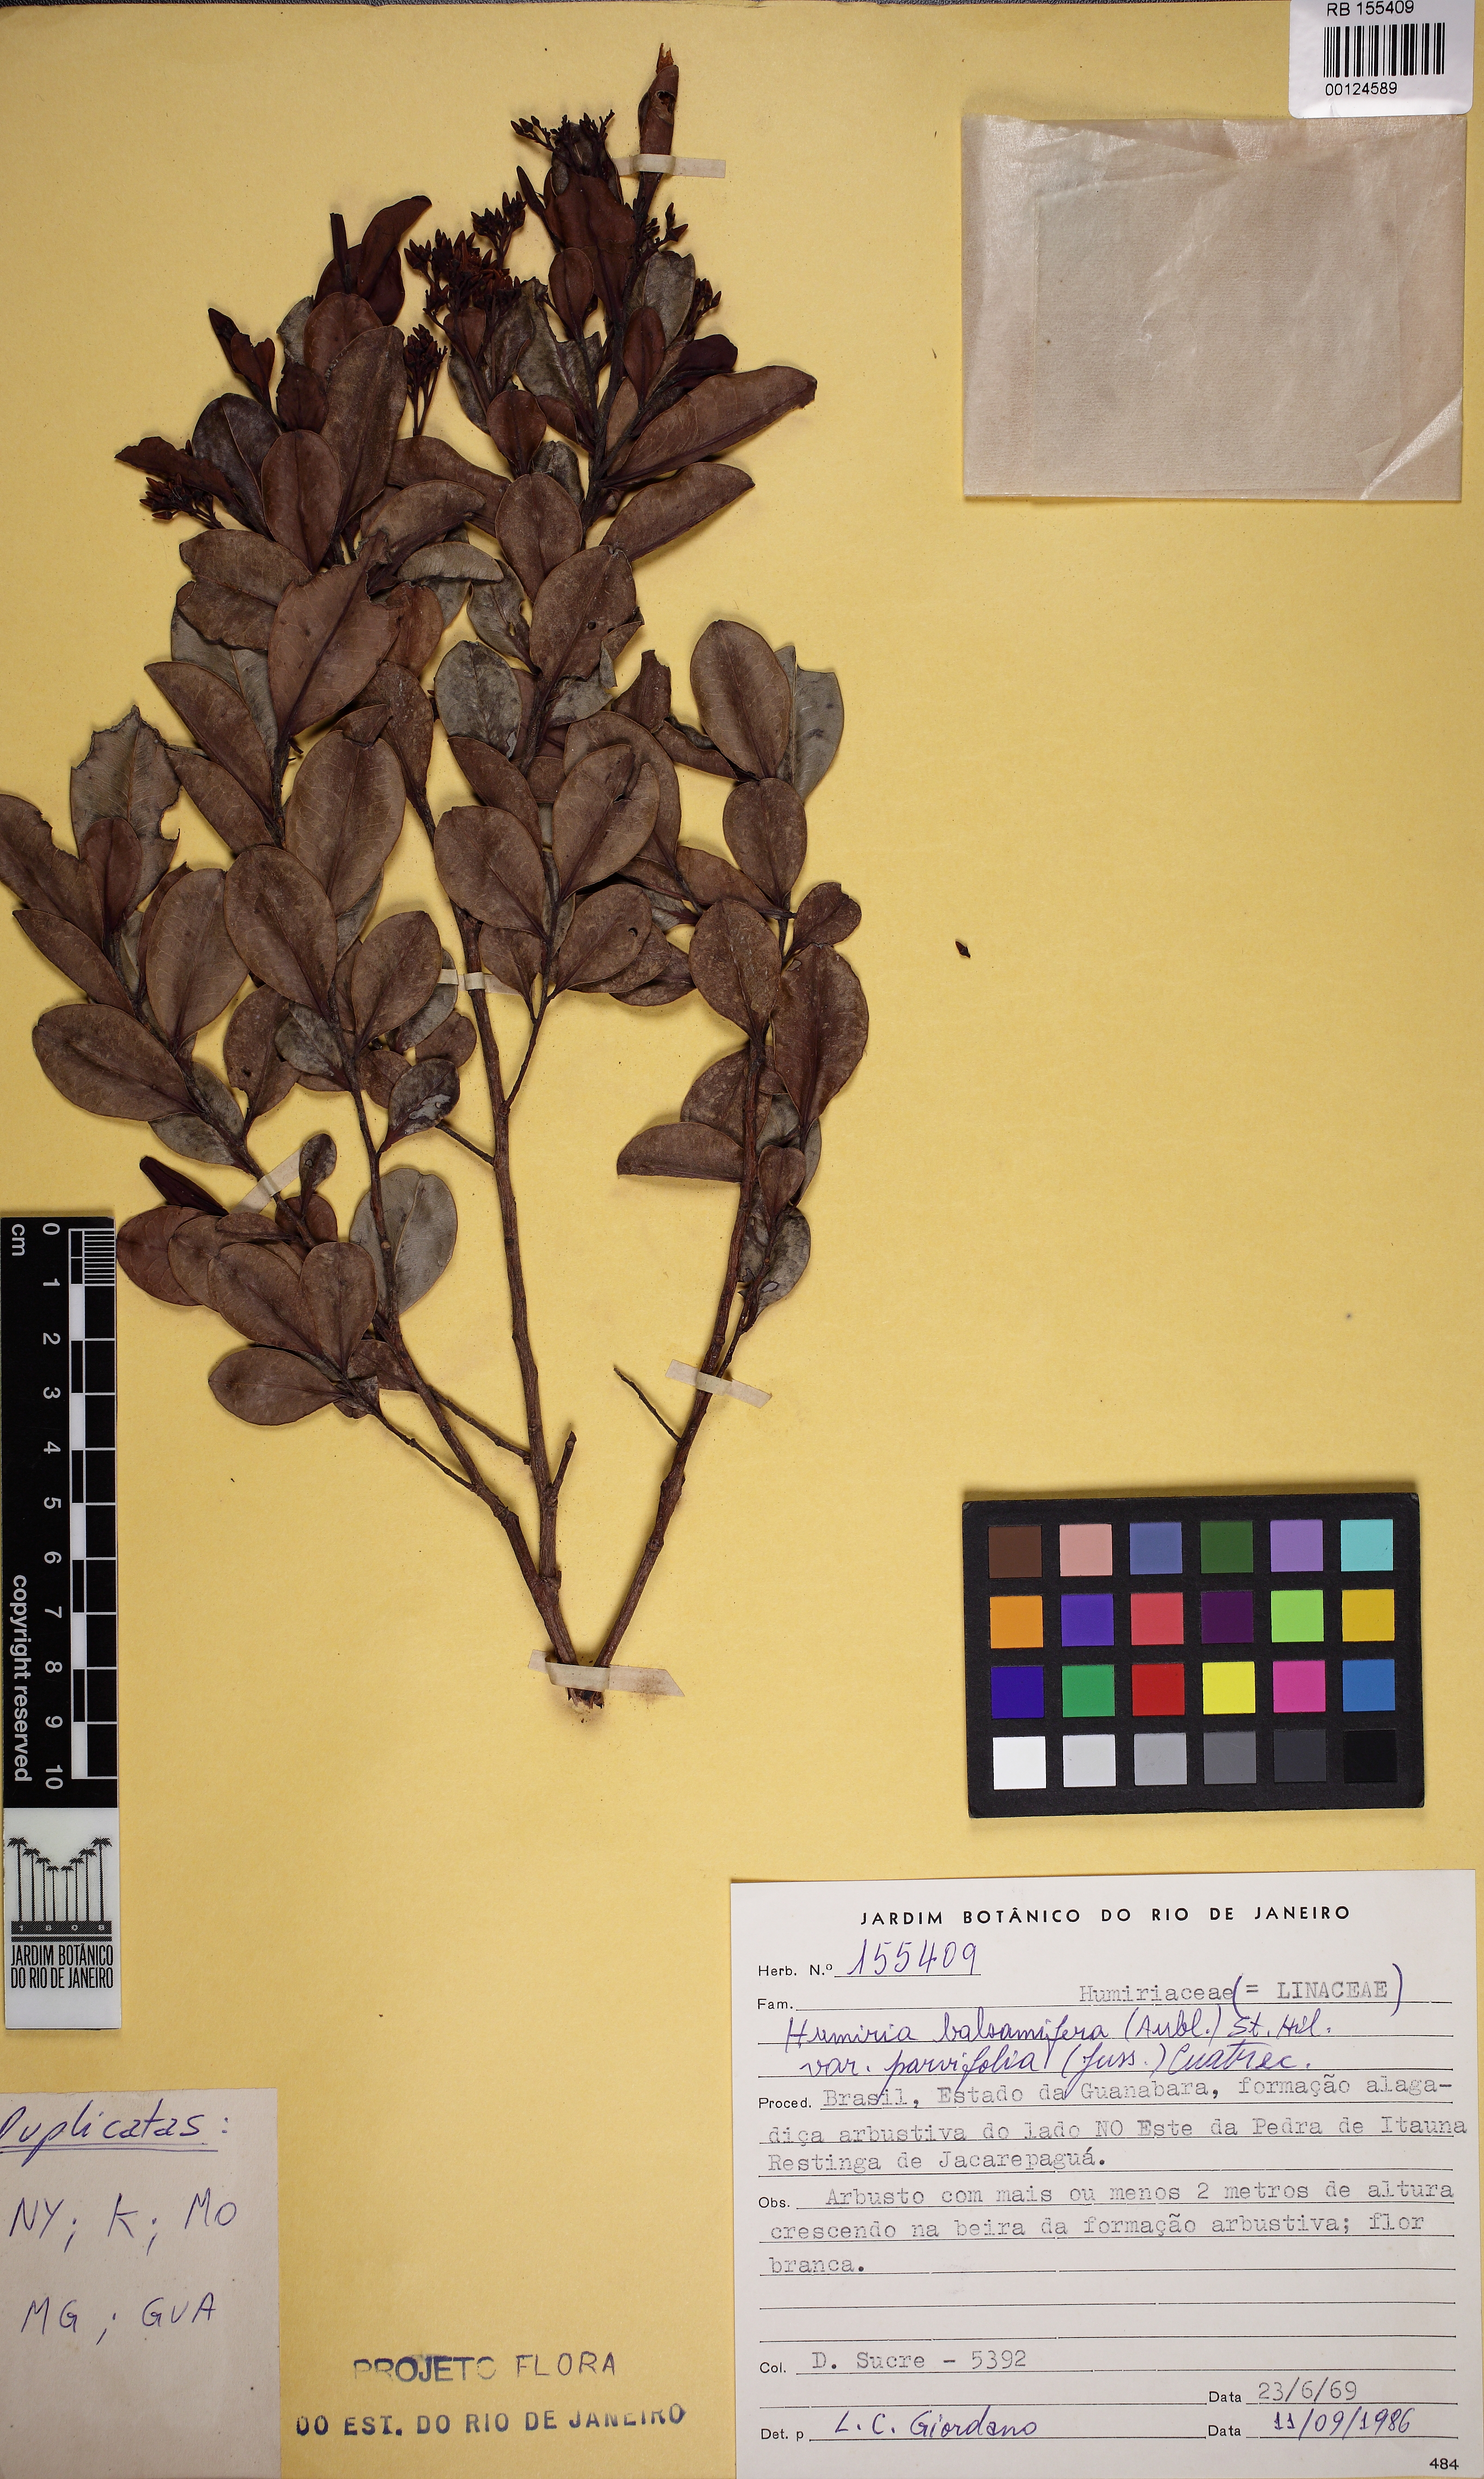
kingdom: Plantae
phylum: Tracheophyta
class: Magnoliopsida
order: Malpighiales
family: Humiriaceae
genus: Humiria
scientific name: Humiria parvifolia
